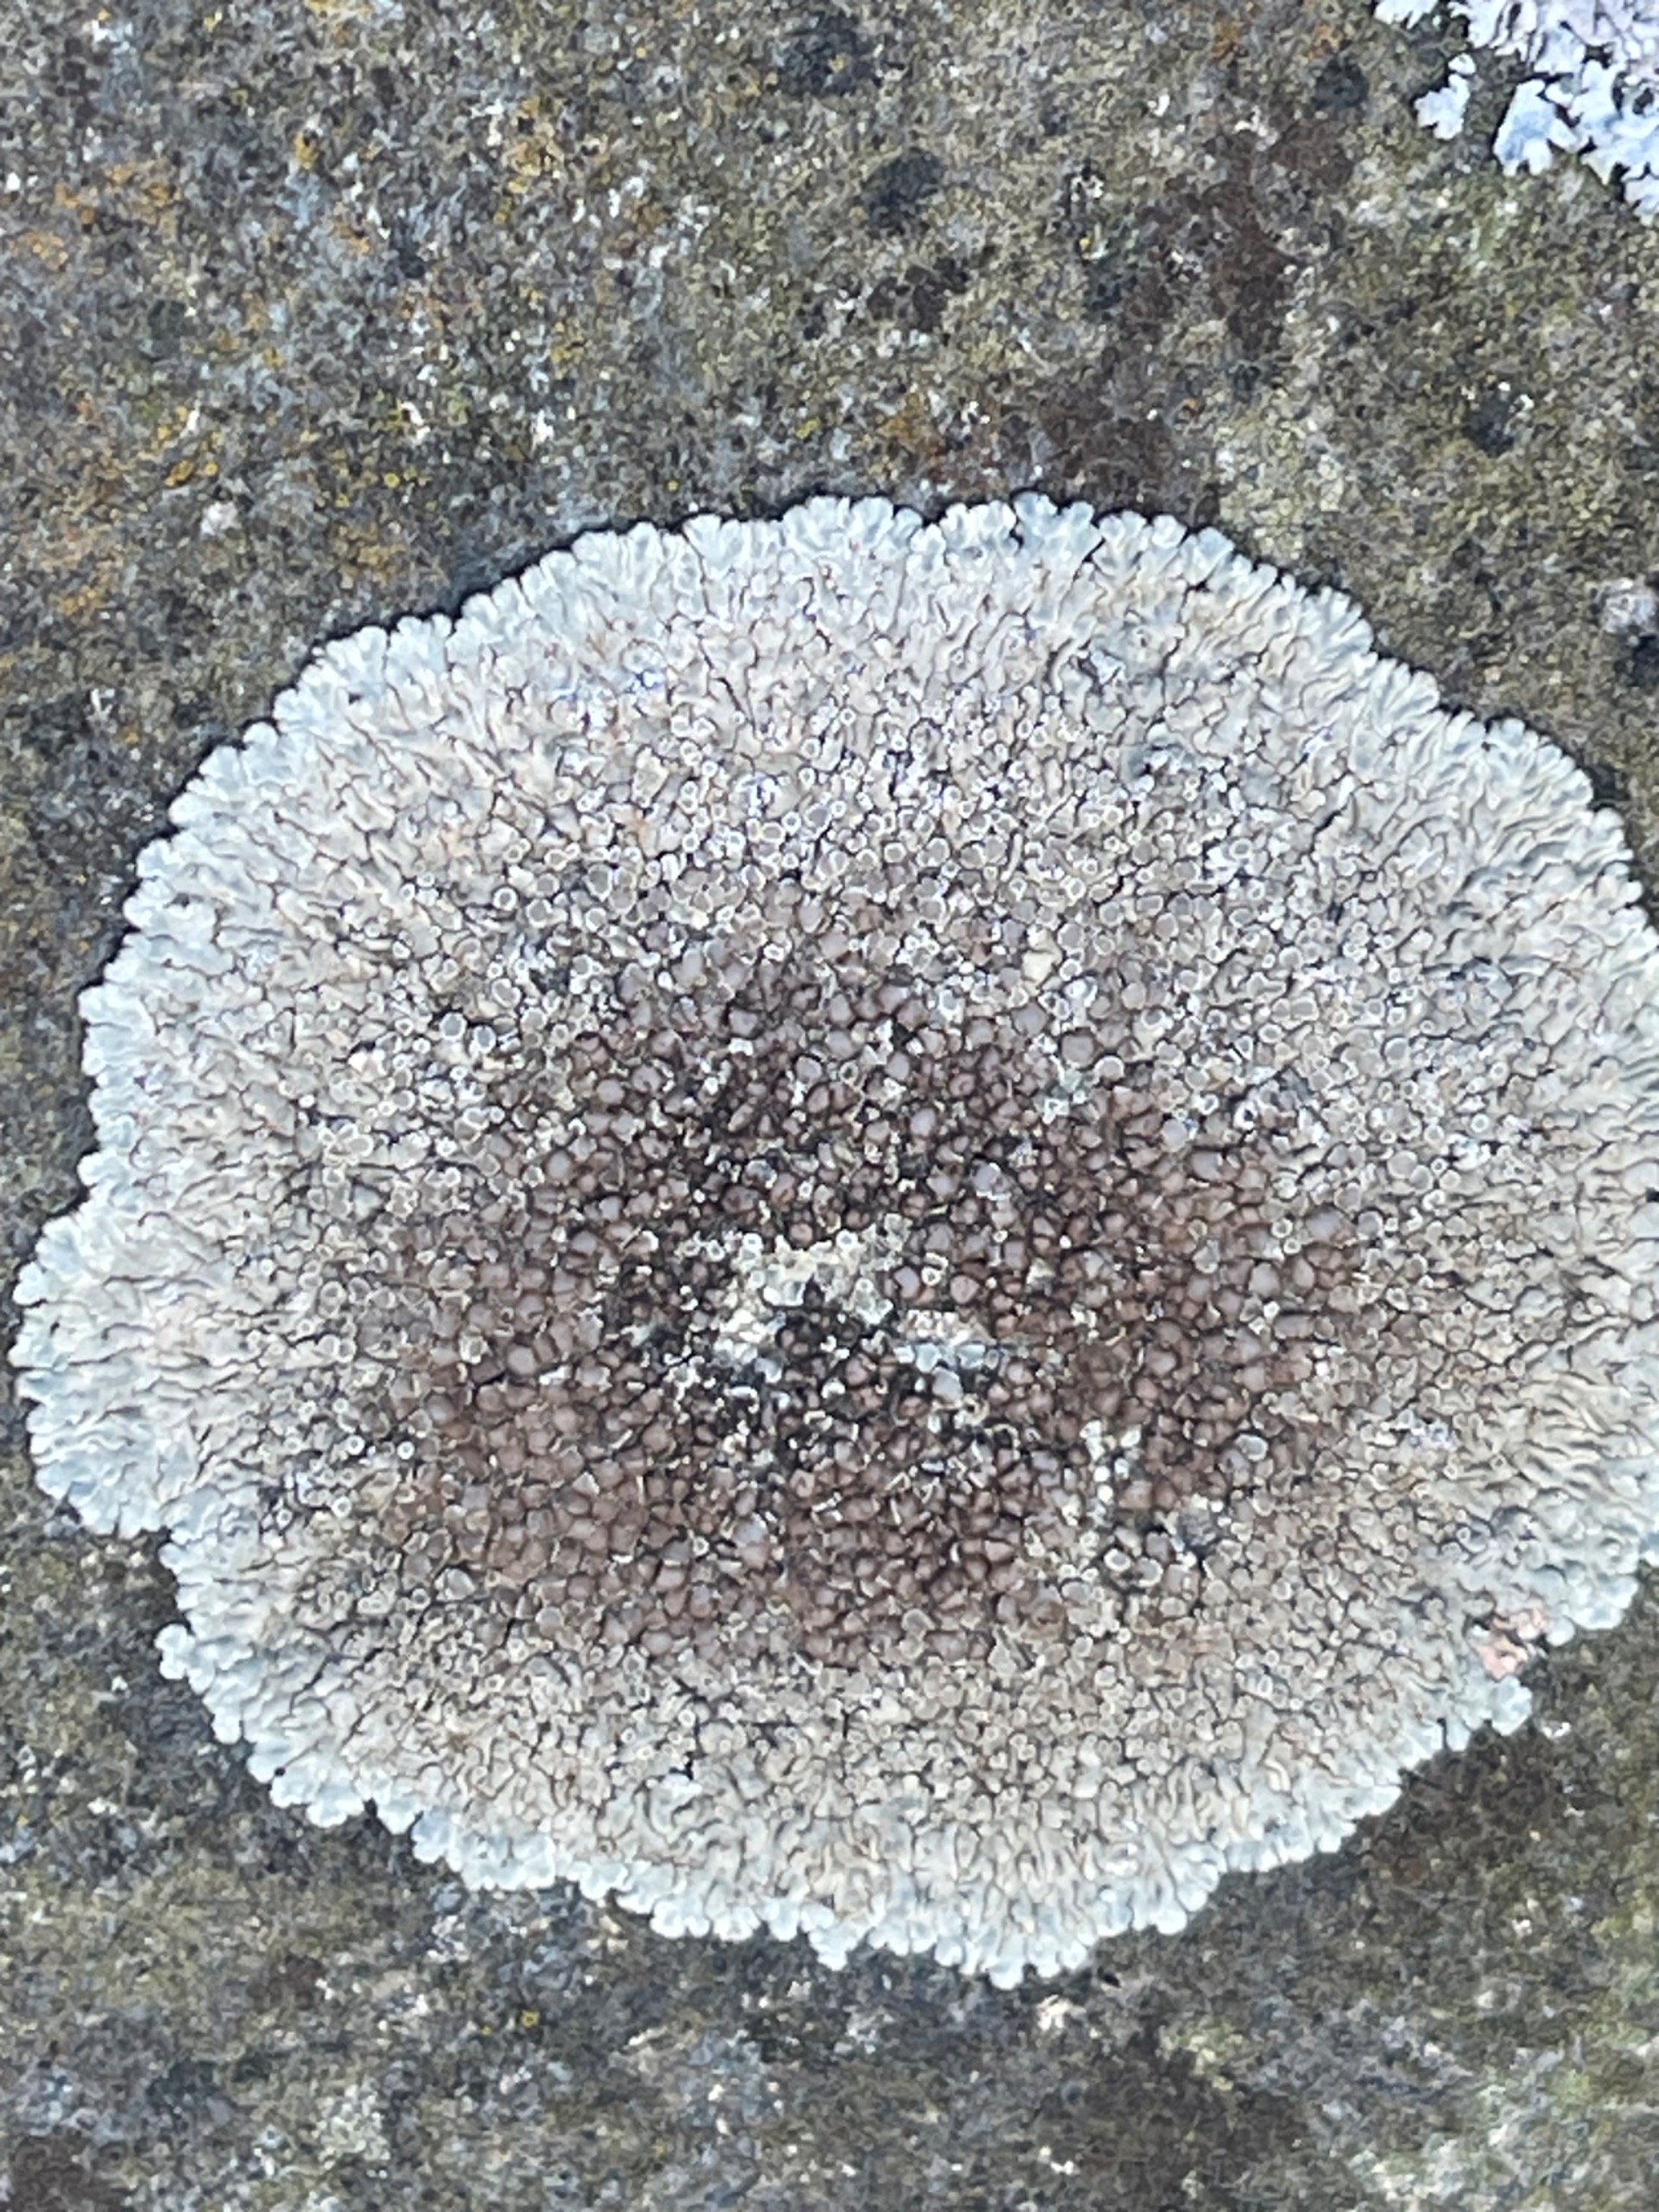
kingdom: Fungi
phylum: Ascomycota
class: Lecanoromycetes
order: Lecanorales
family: Lecanoraceae
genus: Protoparmeliopsis
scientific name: Protoparmeliopsis muralis
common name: Randfliget kantskivelav
